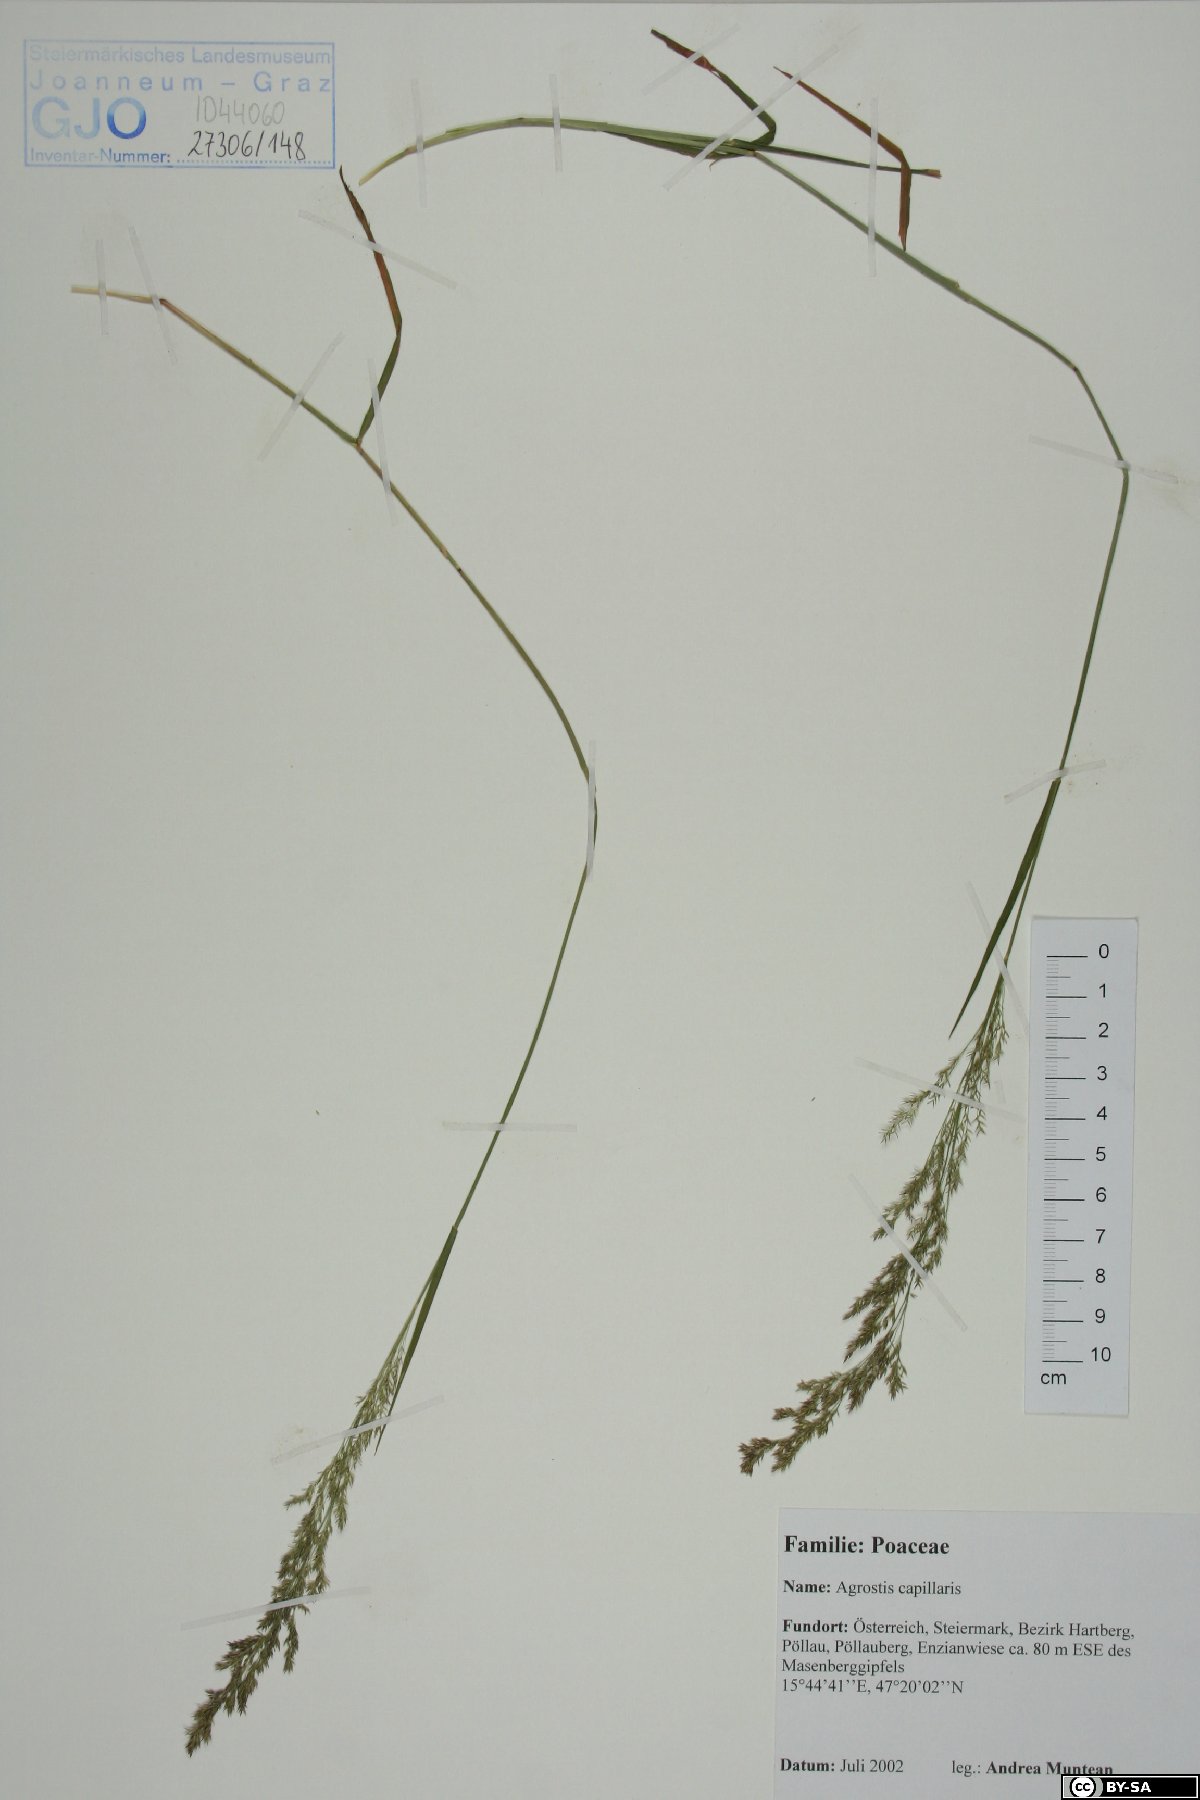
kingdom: Plantae
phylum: Tracheophyta
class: Liliopsida
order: Poales
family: Poaceae
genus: Agrostis
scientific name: Agrostis capillaris
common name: Colonial bentgrass
